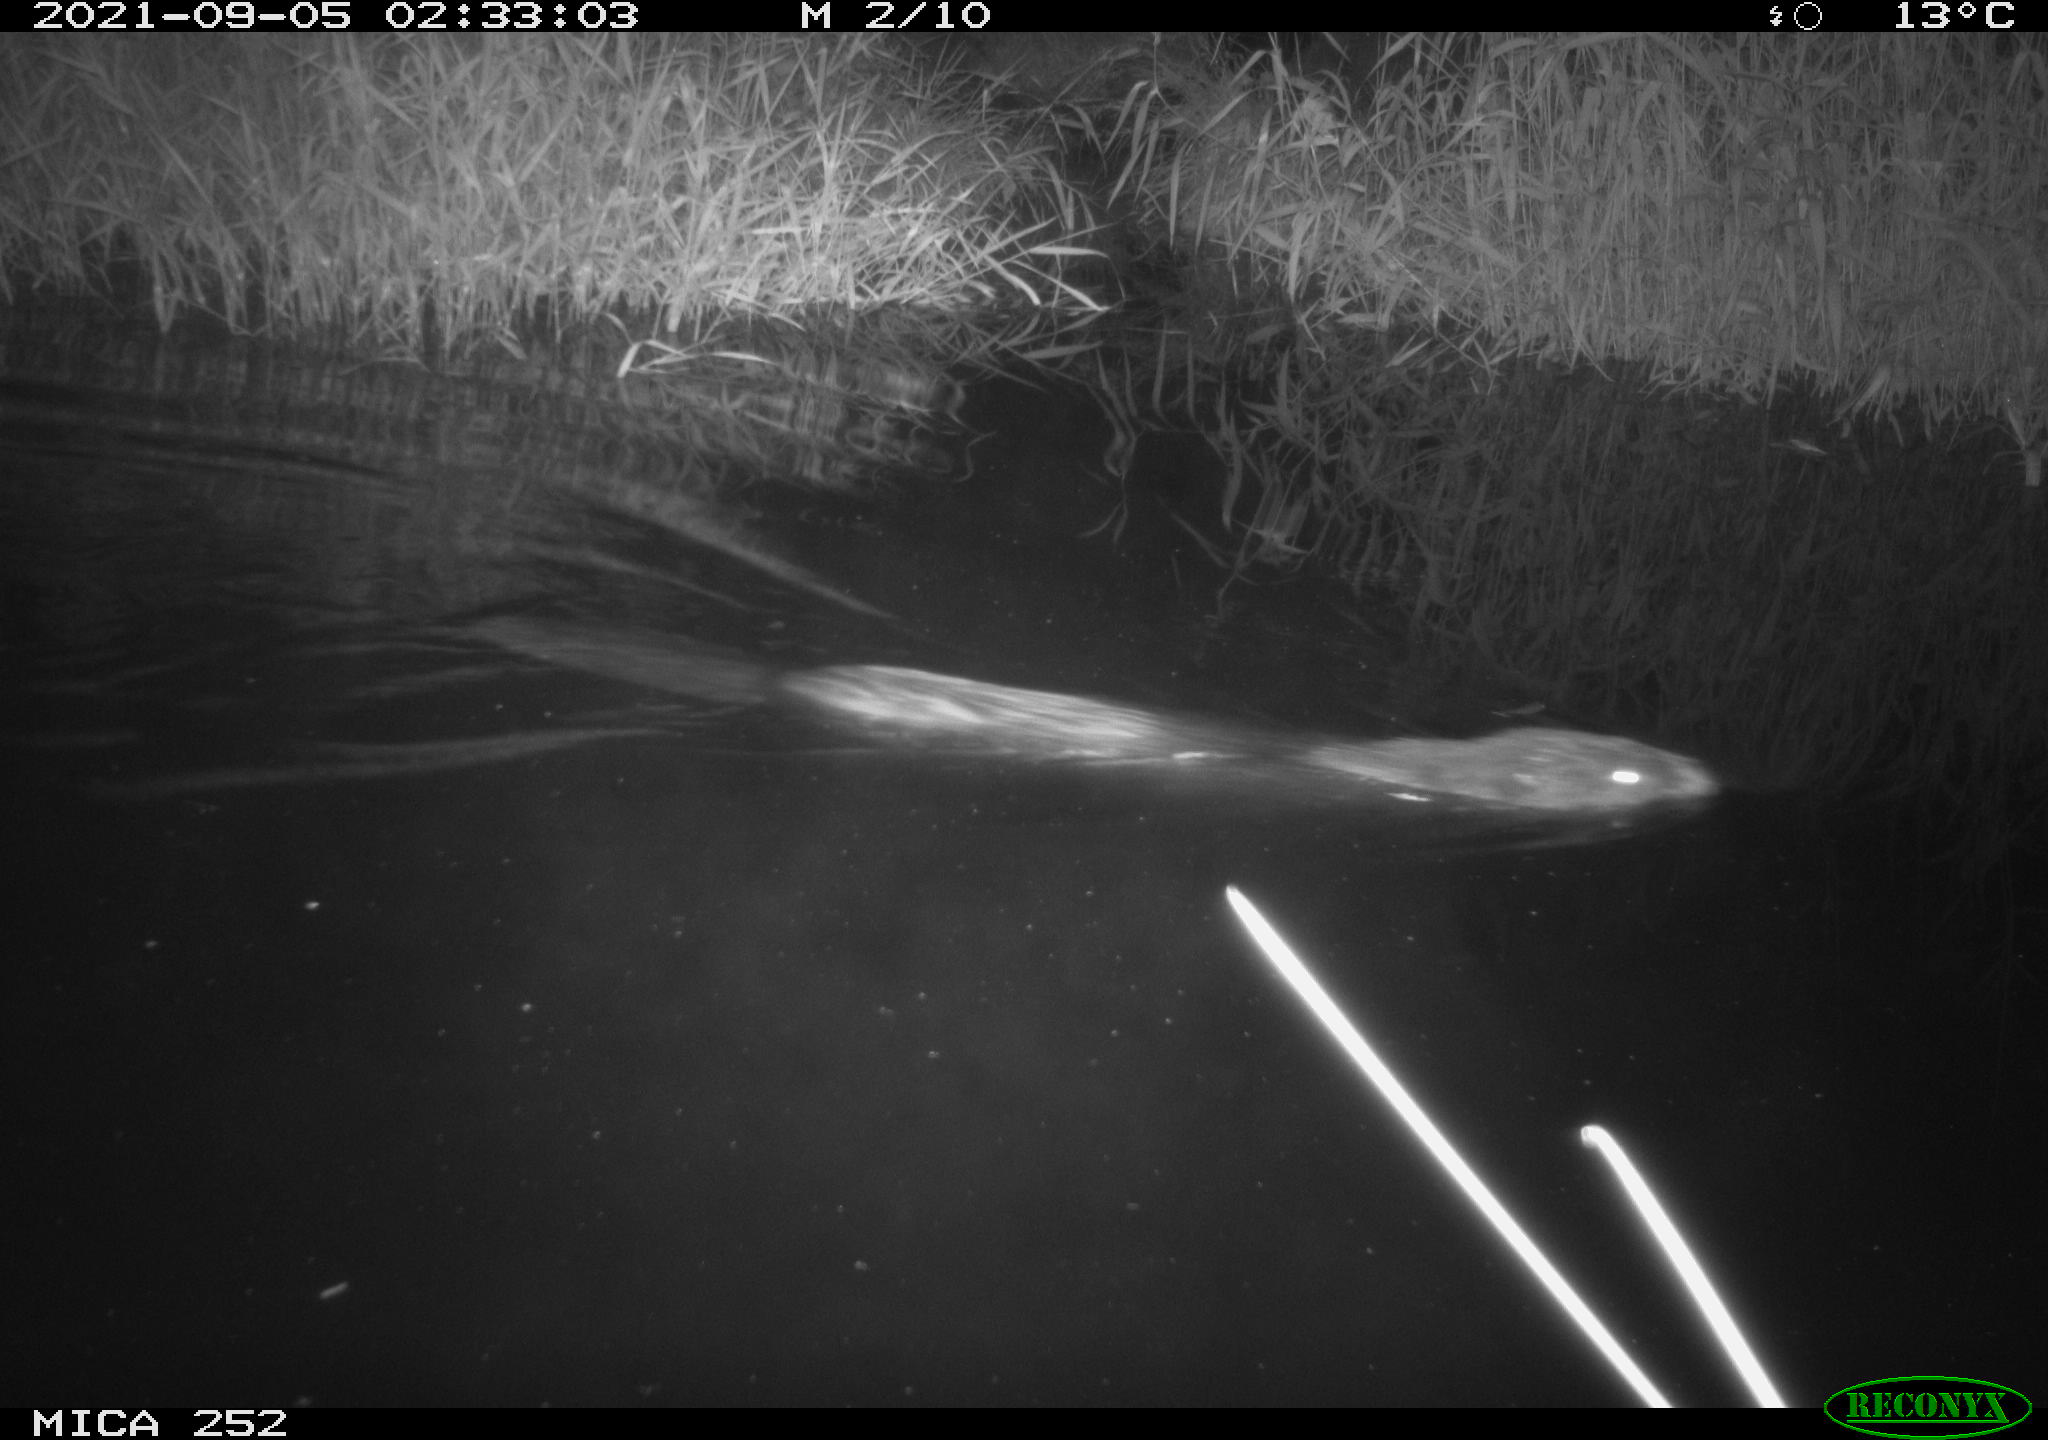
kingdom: Animalia
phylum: Chordata
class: Mammalia
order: Rodentia
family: Castoridae
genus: Castor
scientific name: Castor fiber
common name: Eurasian beaver
